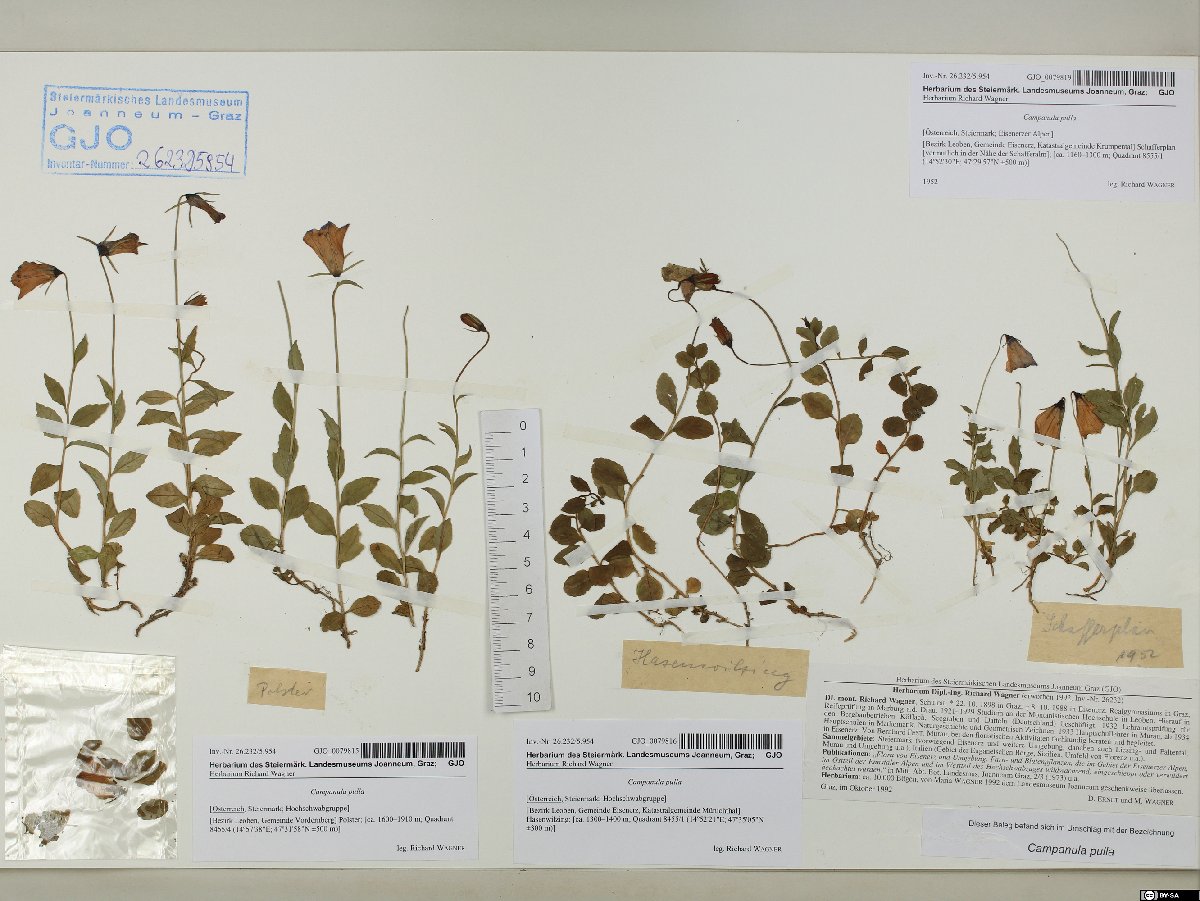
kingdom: Plantae
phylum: Tracheophyta
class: Magnoliopsida
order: Asterales
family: Campanulaceae
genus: Campanula
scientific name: Campanula pulla
